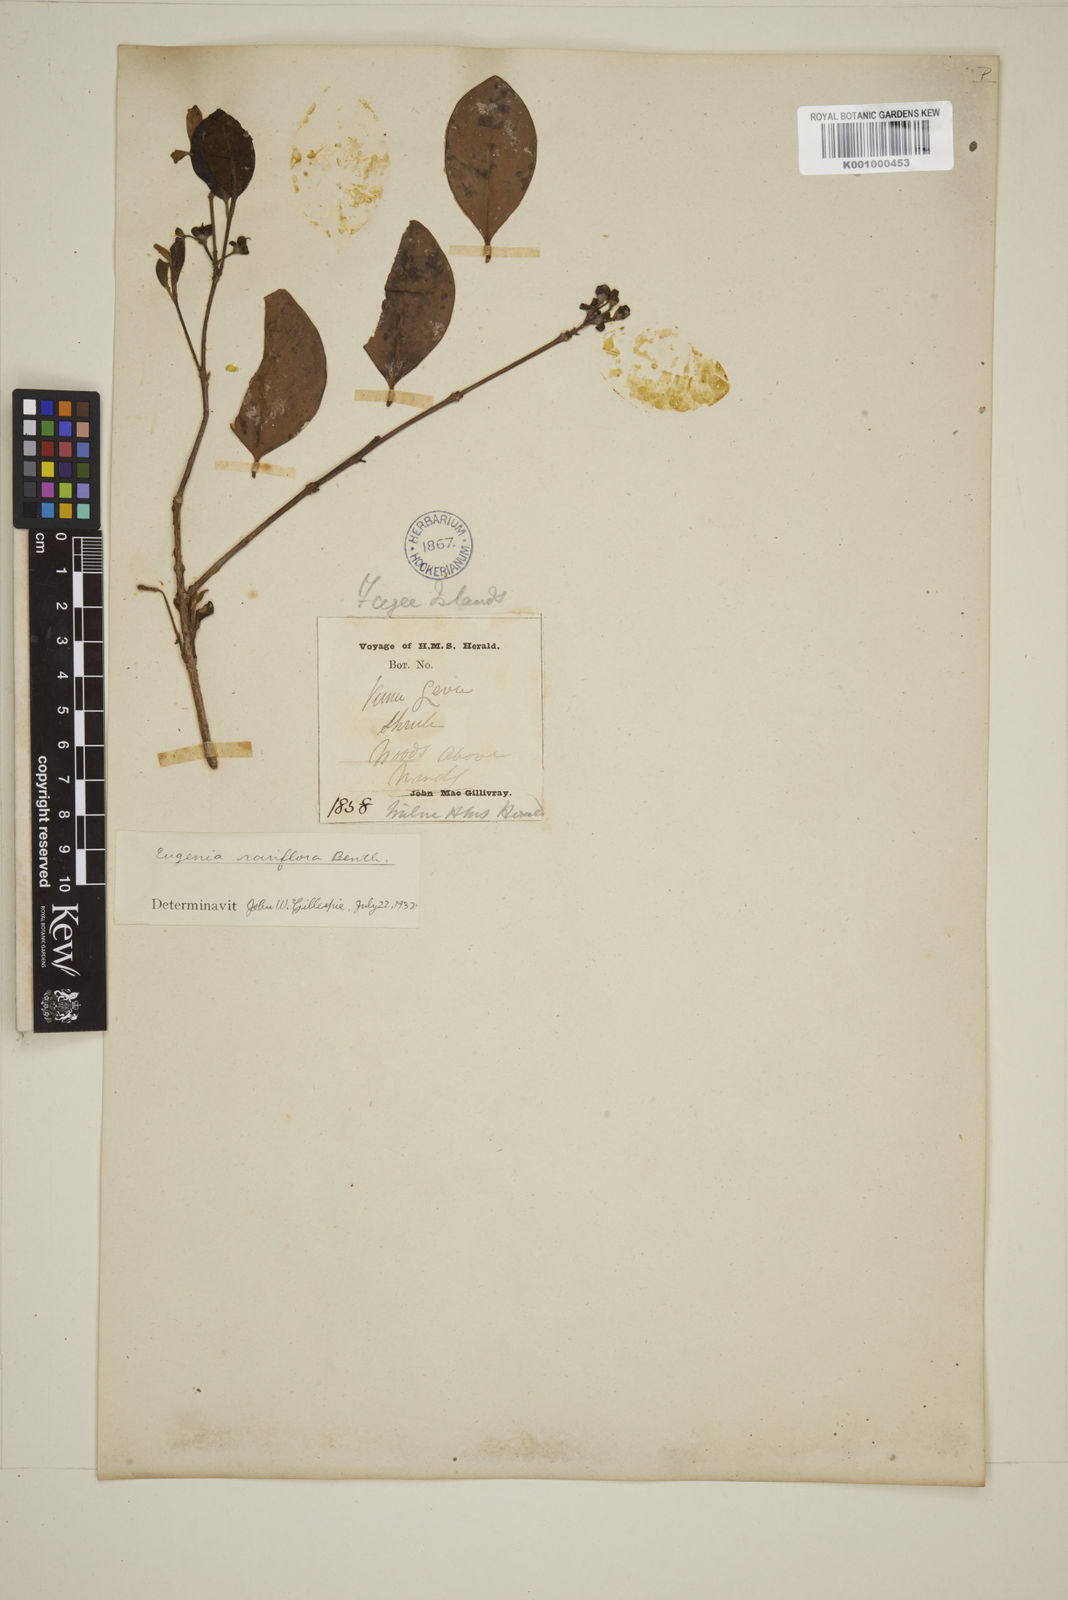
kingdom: Plantae
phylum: Tracheophyta
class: Magnoliopsida
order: Myrtales
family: Myrtaceae
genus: Eugenia
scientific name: Eugenia reinwardtiana
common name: Cedar bay-cherry
